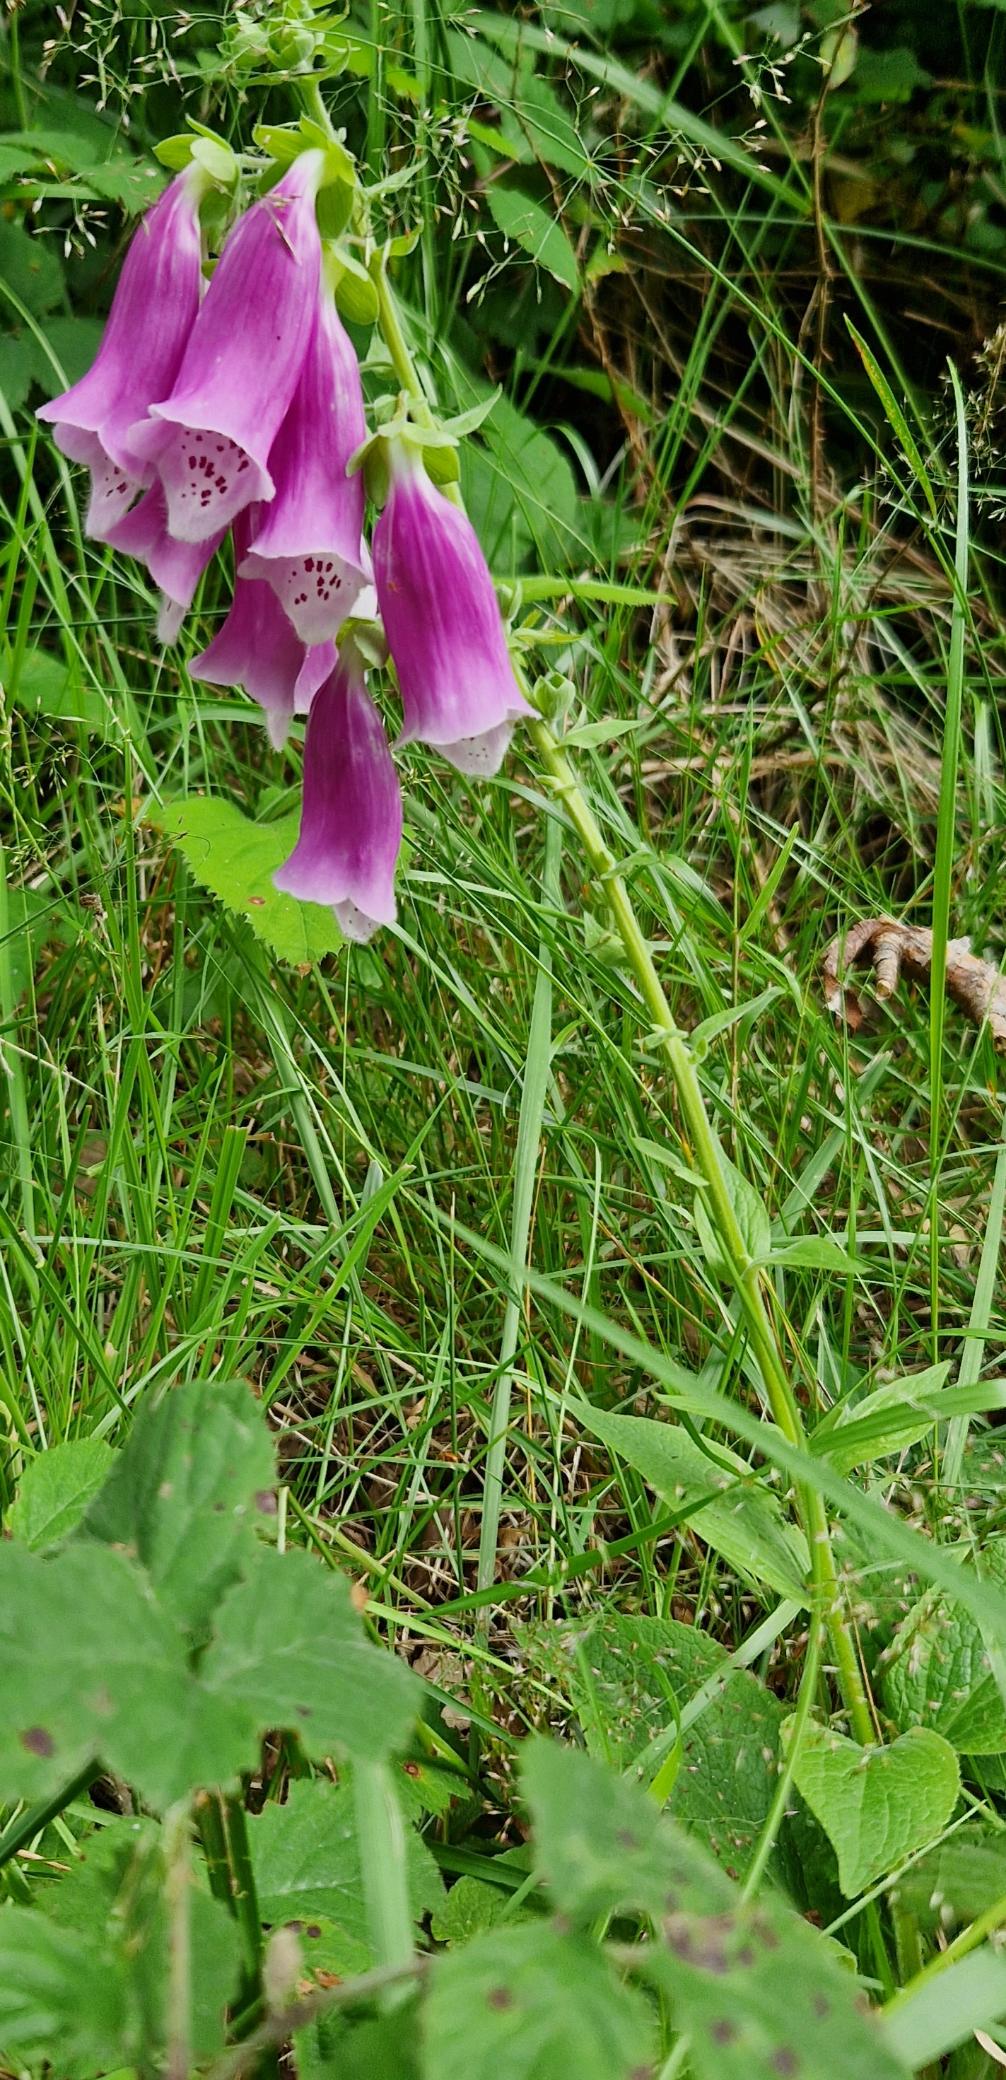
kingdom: Plantae
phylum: Tracheophyta
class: Magnoliopsida
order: Lamiales
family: Plantaginaceae
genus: Digitalis
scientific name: Digitalis purpurea
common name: Almindelig fingerbøl
